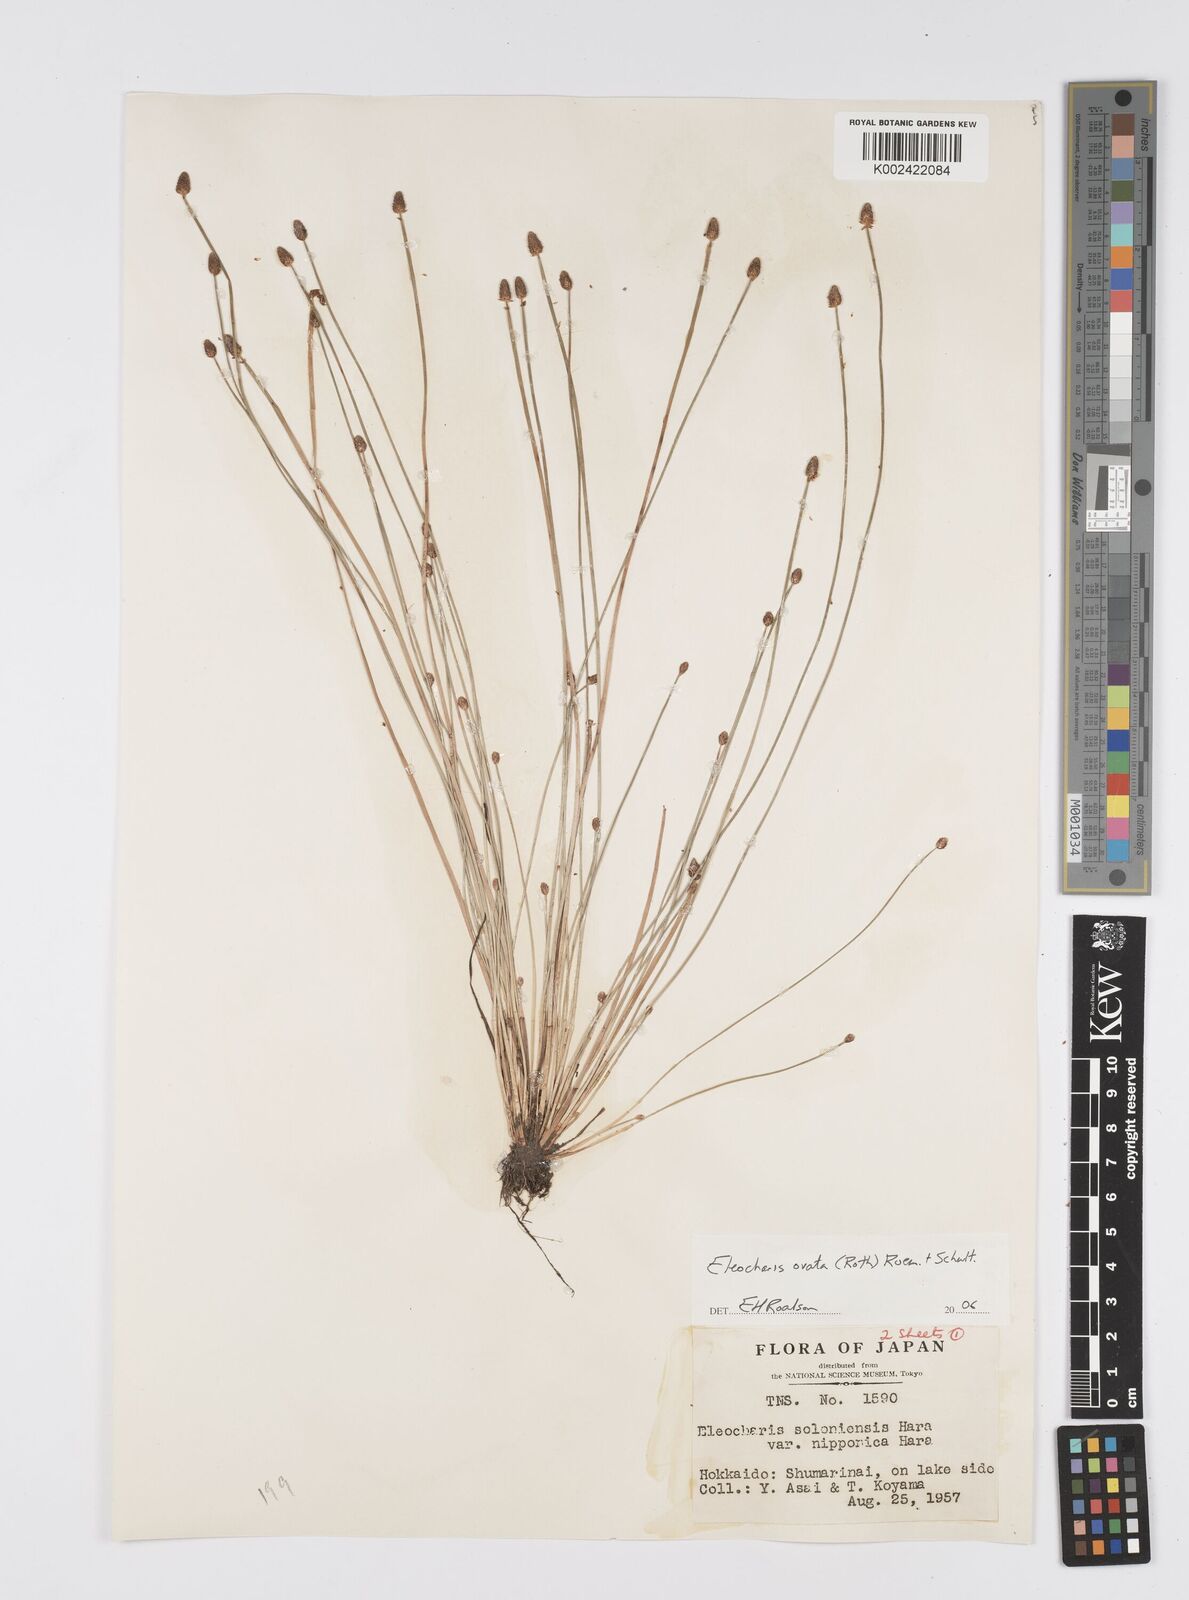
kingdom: Plantae
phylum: Tracheophyta
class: Liliopsida
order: Poales
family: Cyperaceae
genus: Eleocharis
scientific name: Eleocharis ovata
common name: Oval spike-rush
